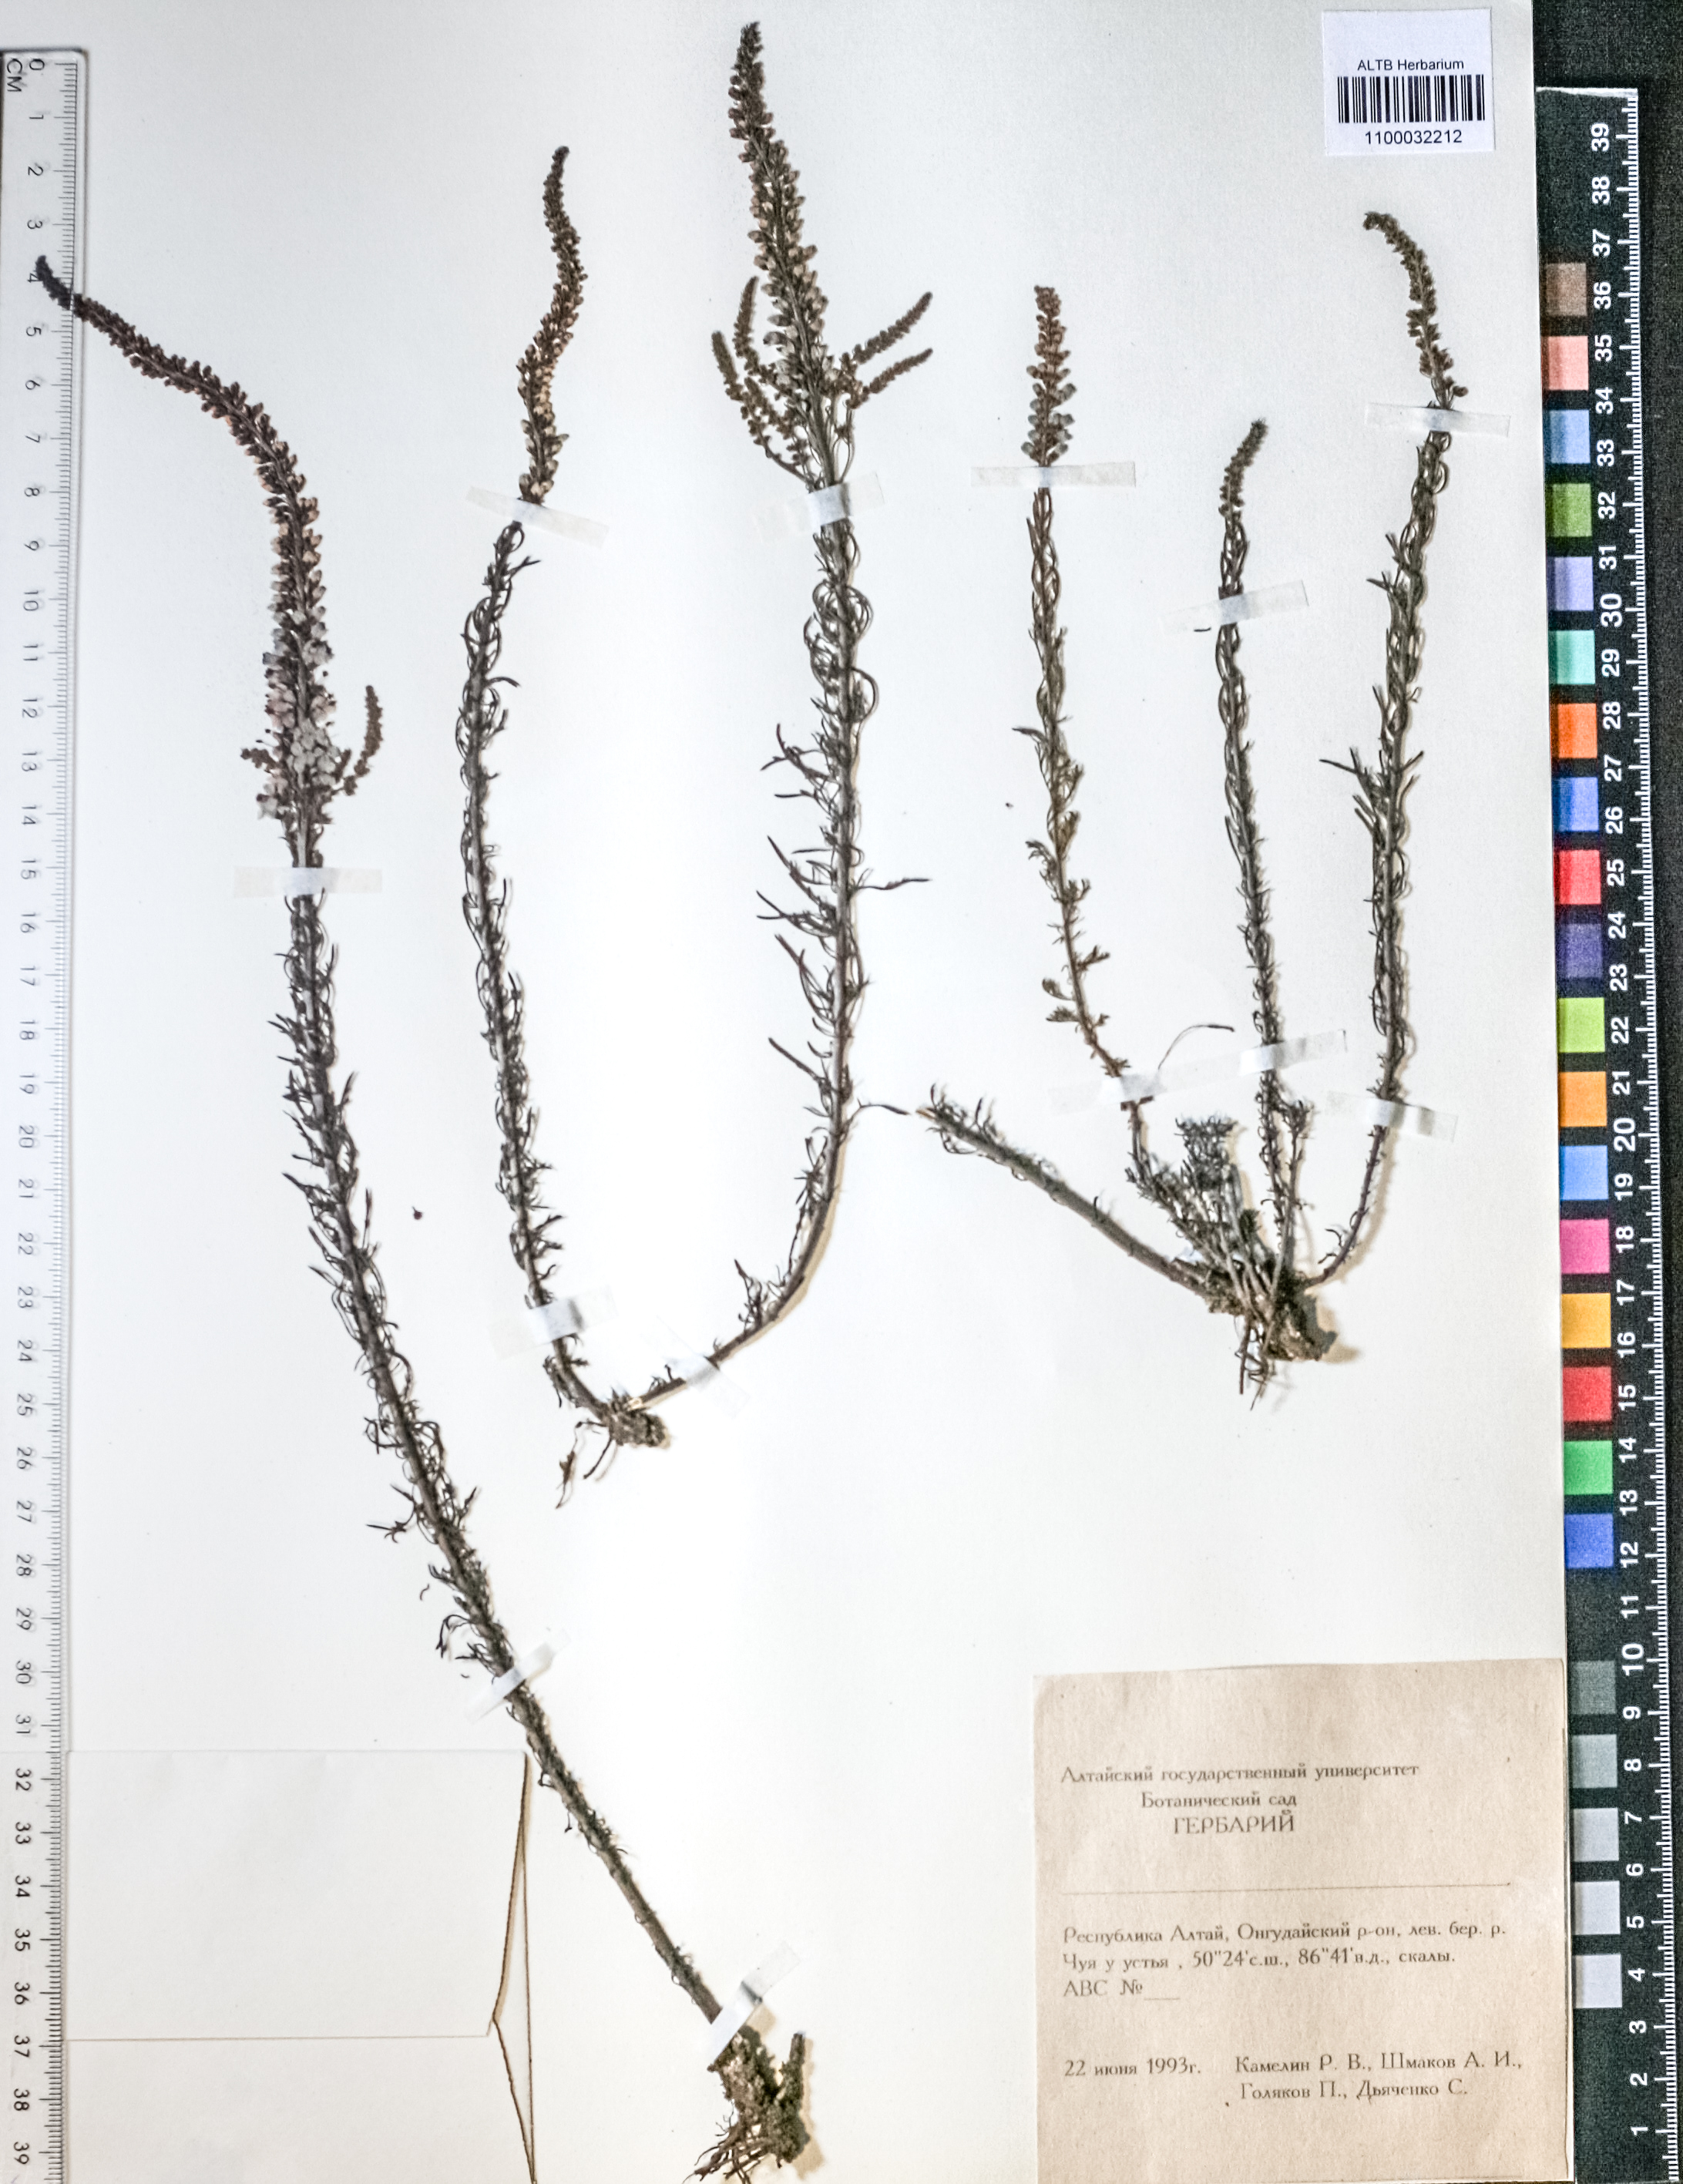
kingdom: Plantae
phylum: Tracheophyta
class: Magnoliopsida
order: Lamiales
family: Plantaginaceae
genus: Veronica
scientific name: Veronica spicata
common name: Spiked speedwell
